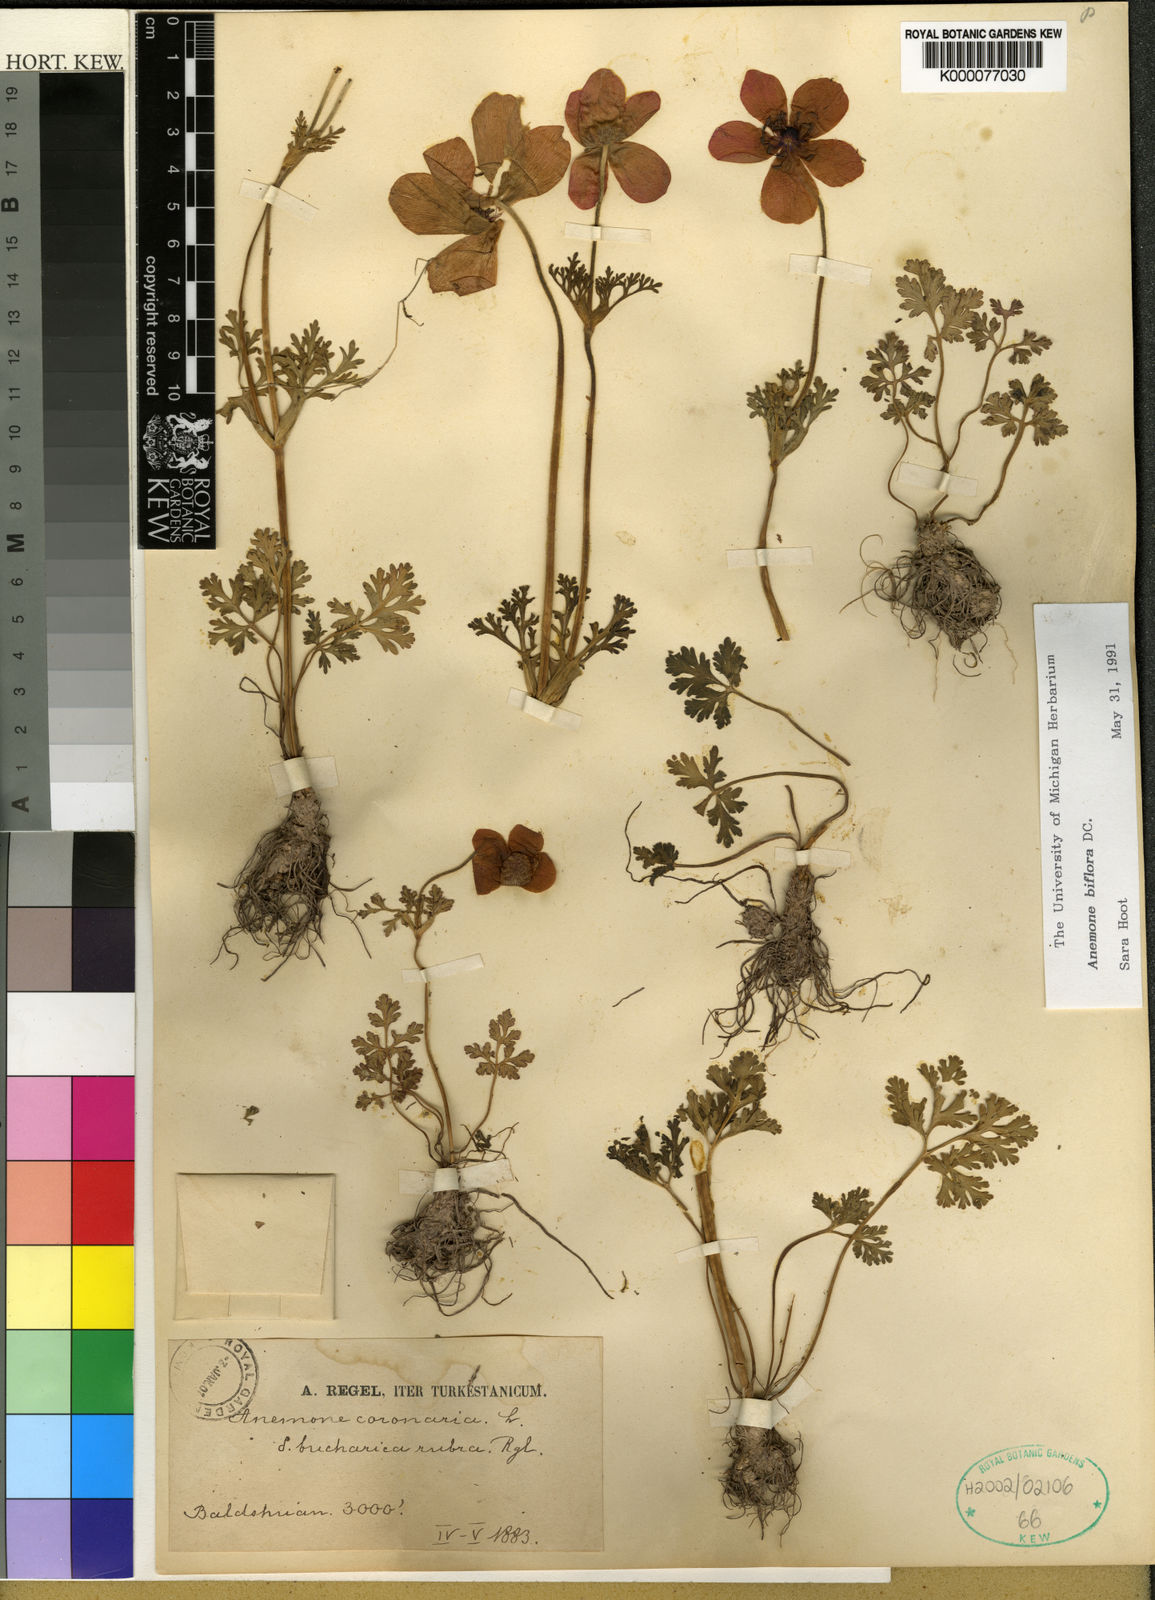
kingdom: Plantae
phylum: Tracheophyta
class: Magnoliopsida
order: Ranunculales
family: Ranunculaceae
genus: Anemone
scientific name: Anemone biflora
